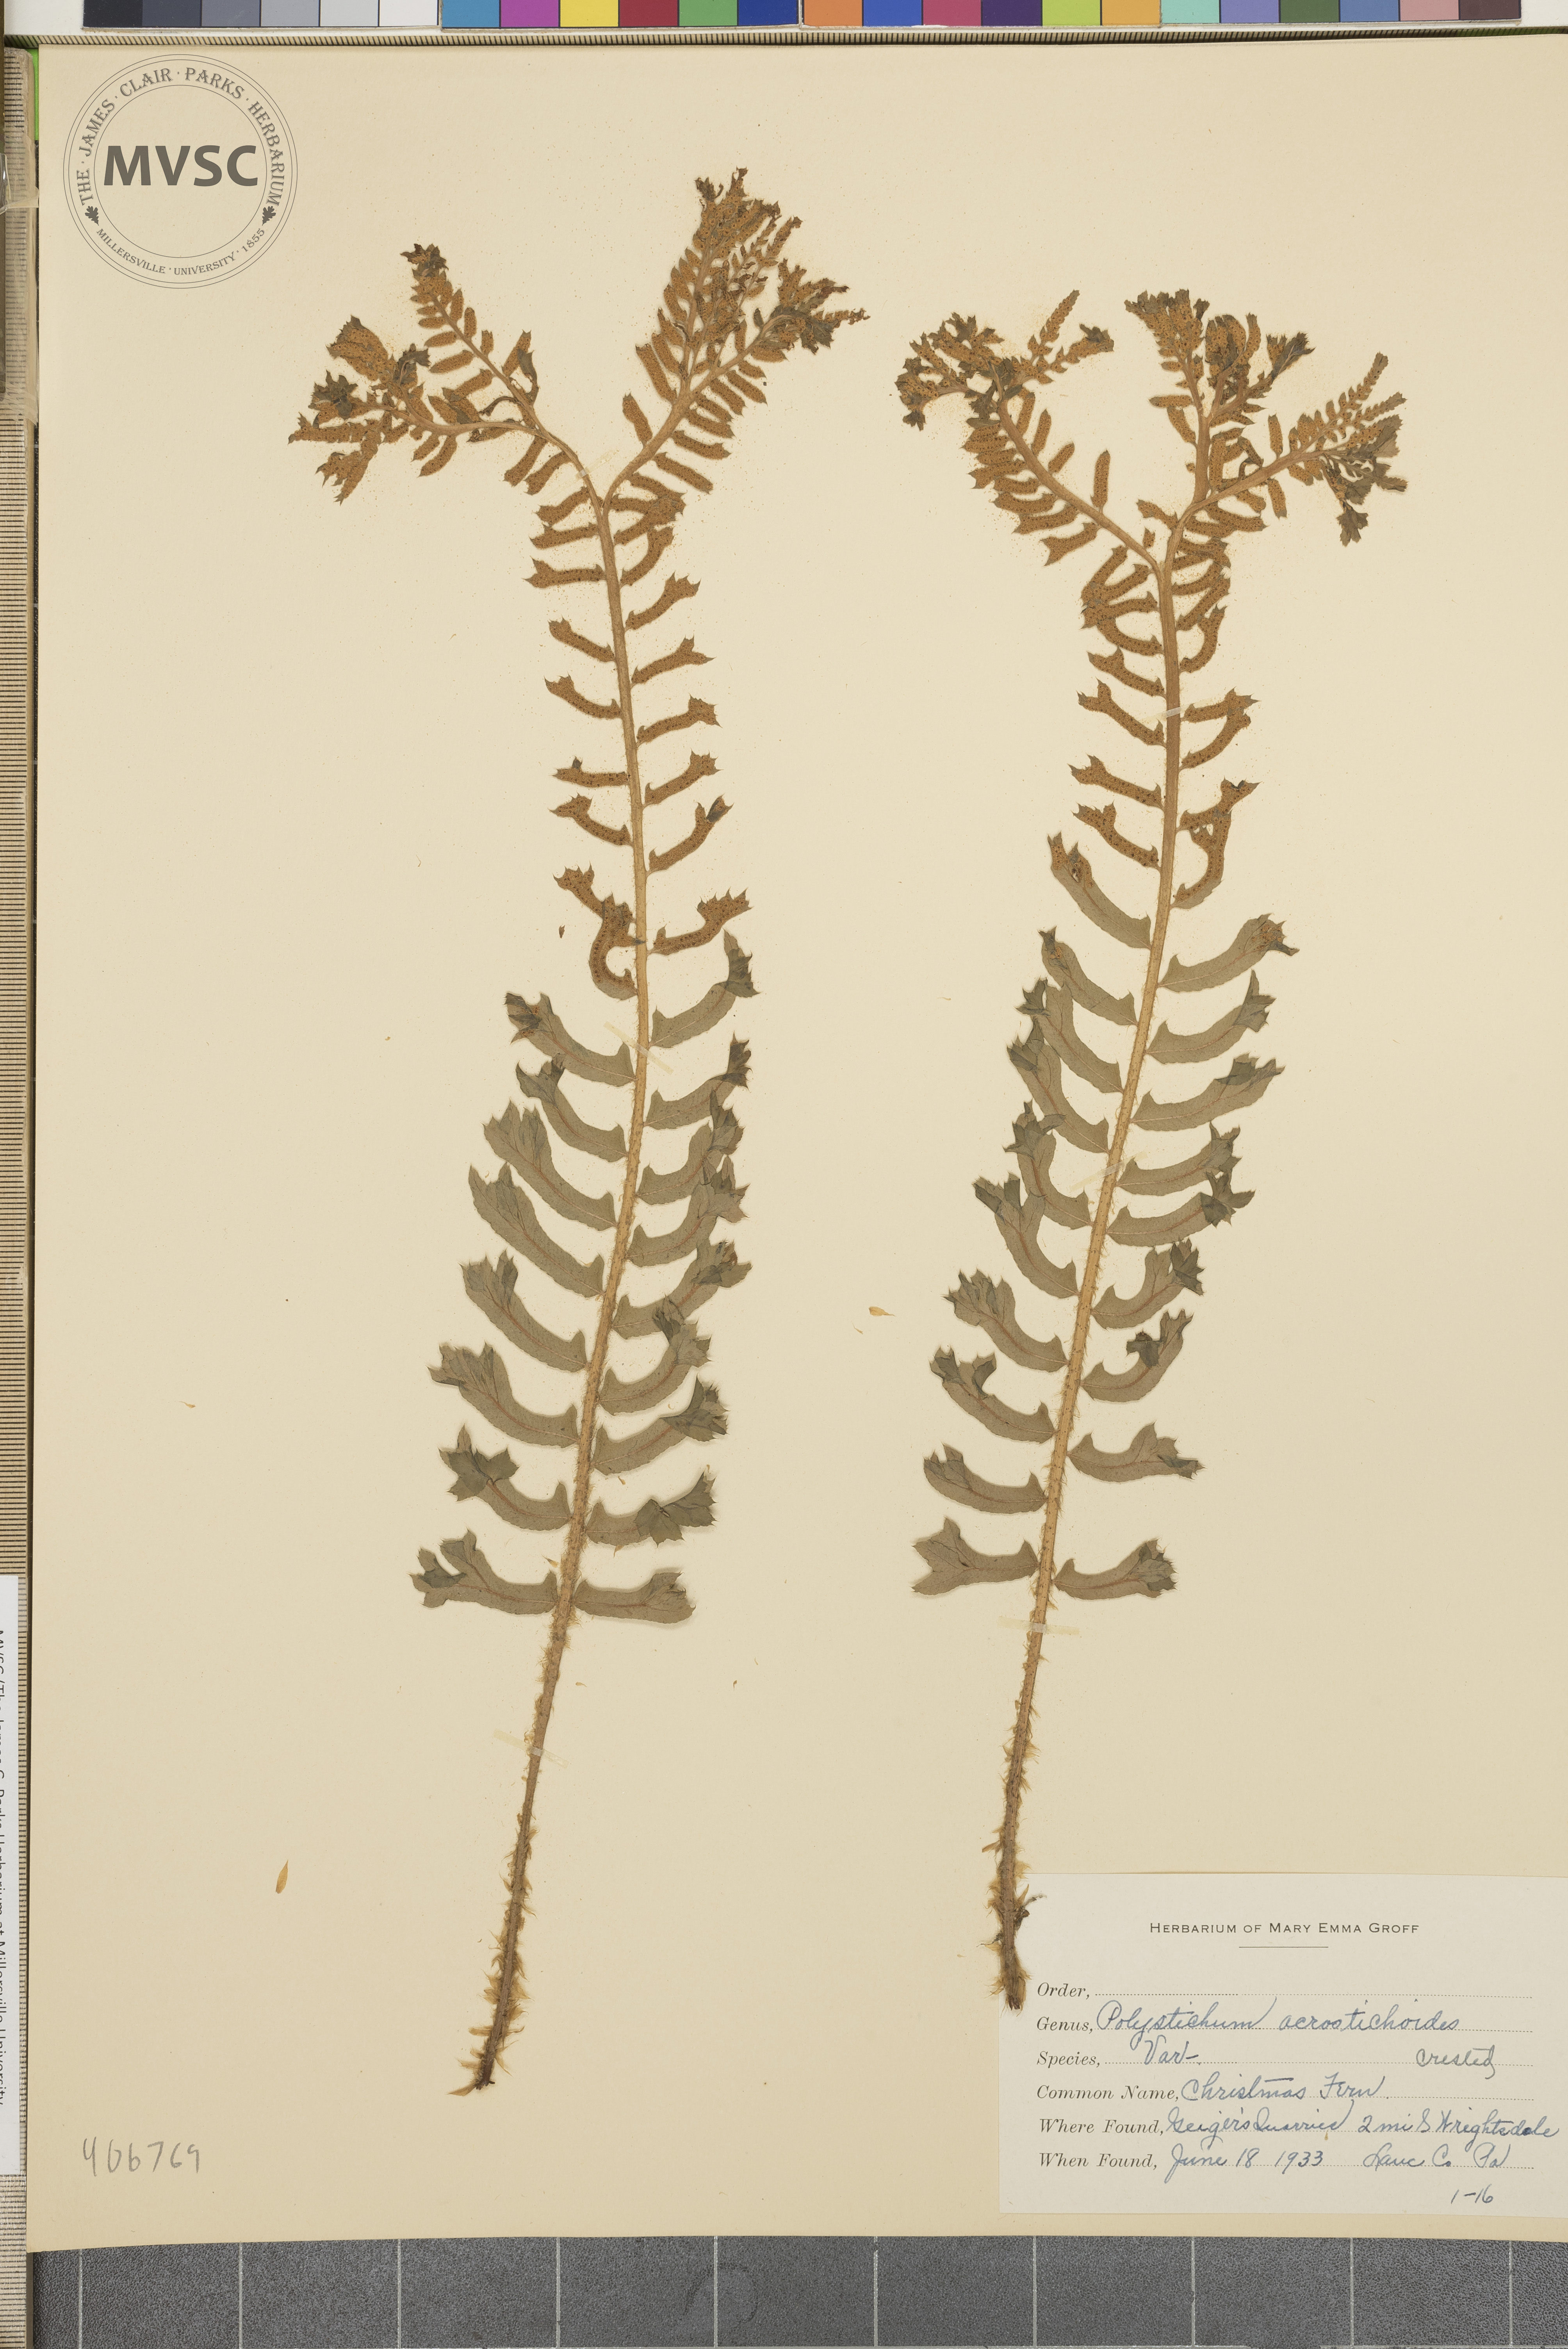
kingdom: Plantae
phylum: Tracheophyta
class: Polypodiopsida
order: Polypodiales
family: Dryopteridaceae
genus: Polystichum
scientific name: Polystichum acrostichoides
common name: Christmas fern
